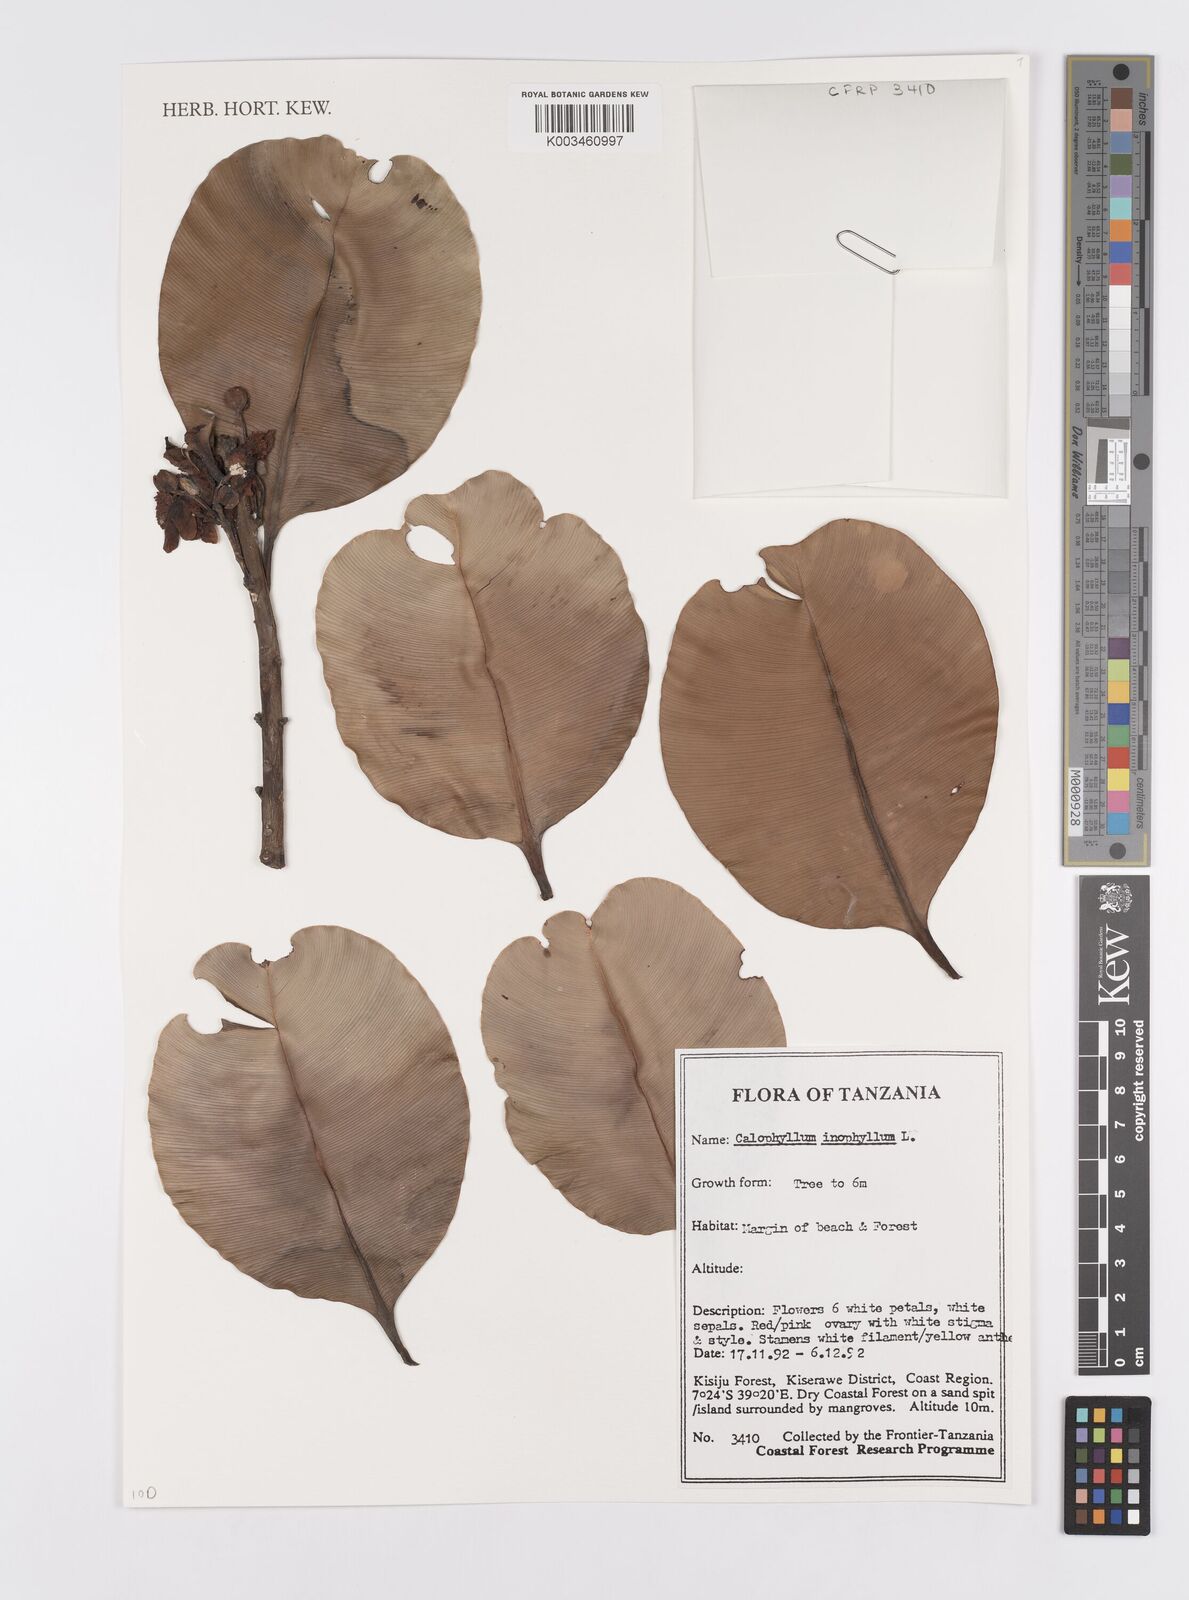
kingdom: Plantae
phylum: Tracheophyta
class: Magnoliopsida
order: Malpighiales
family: Calophyllaceae
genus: Calophyllum
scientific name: Calophyllum inophyllum
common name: Alexandrian laurel
